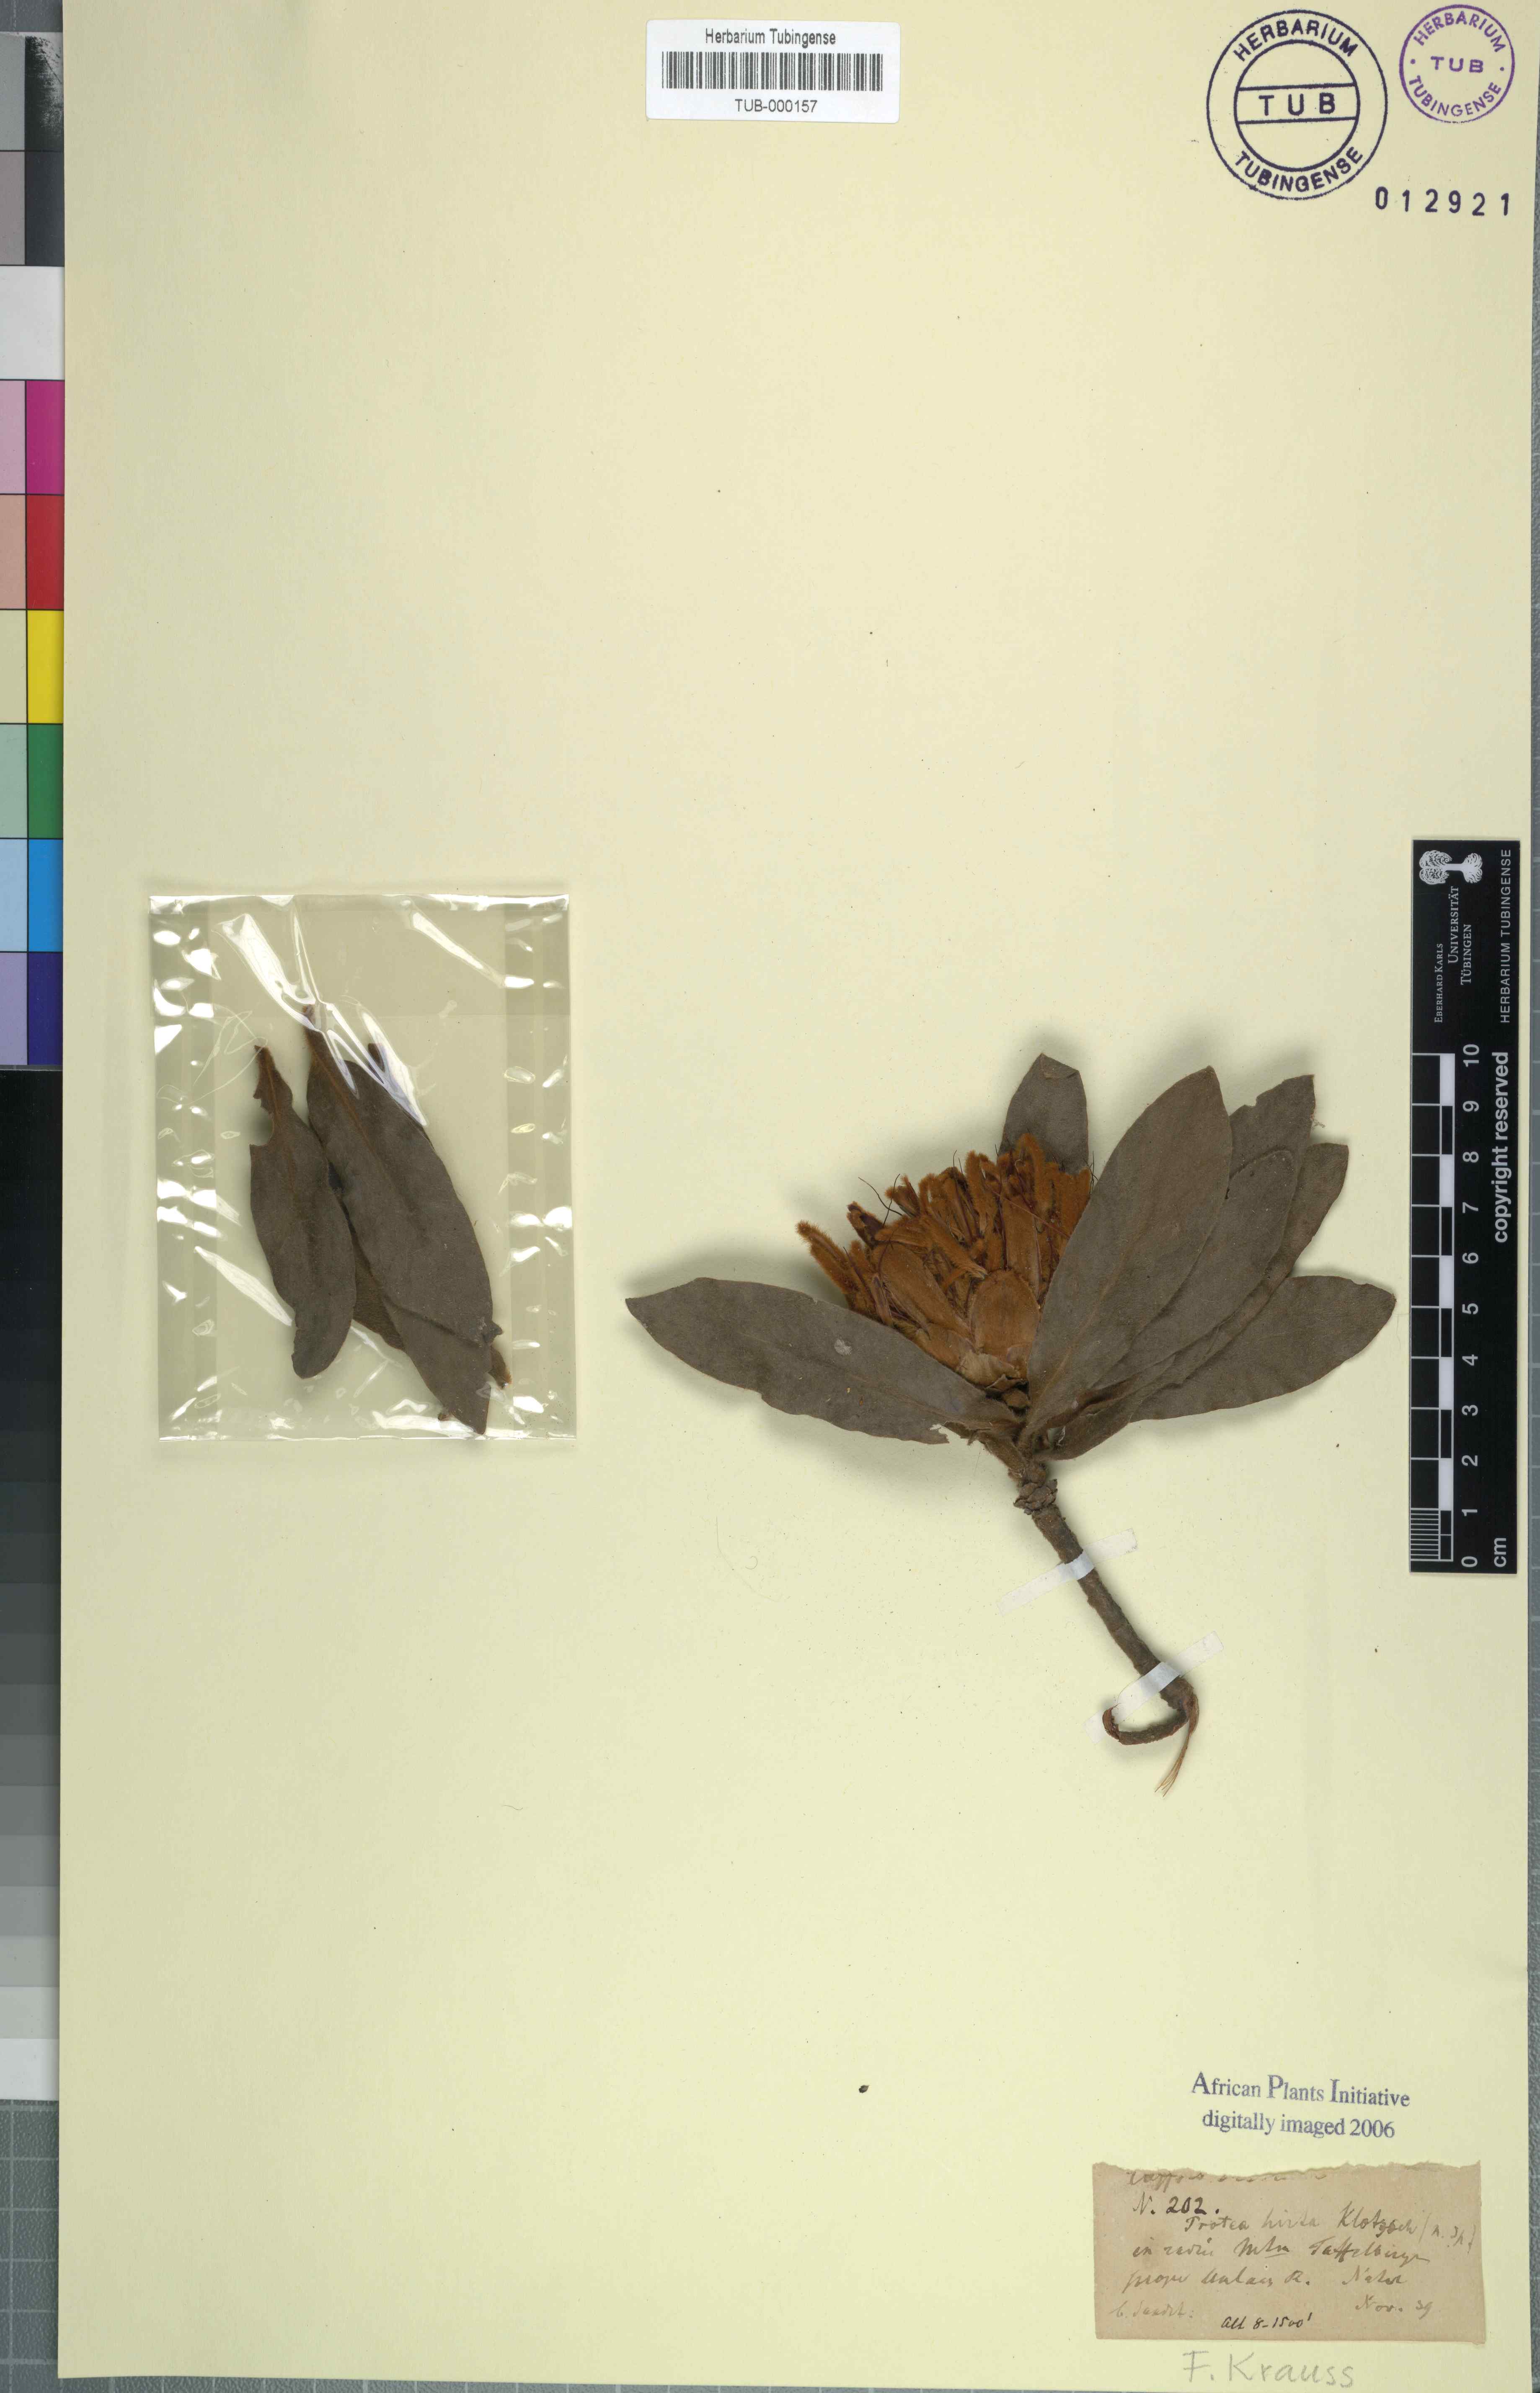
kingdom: Plantae
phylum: Tracheophyta
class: Magnoliopsida
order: Proteales
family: Proteaceae
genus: Protea
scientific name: Protea welwitschii
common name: Cluster-head protea
